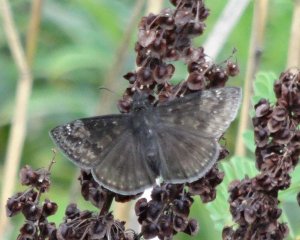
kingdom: Animalia
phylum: Arthropoda
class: Insecta
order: Lepidoptera
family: Hesperiidae
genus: Gesta
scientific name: Gesta
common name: Wild Indigo Duskywing
